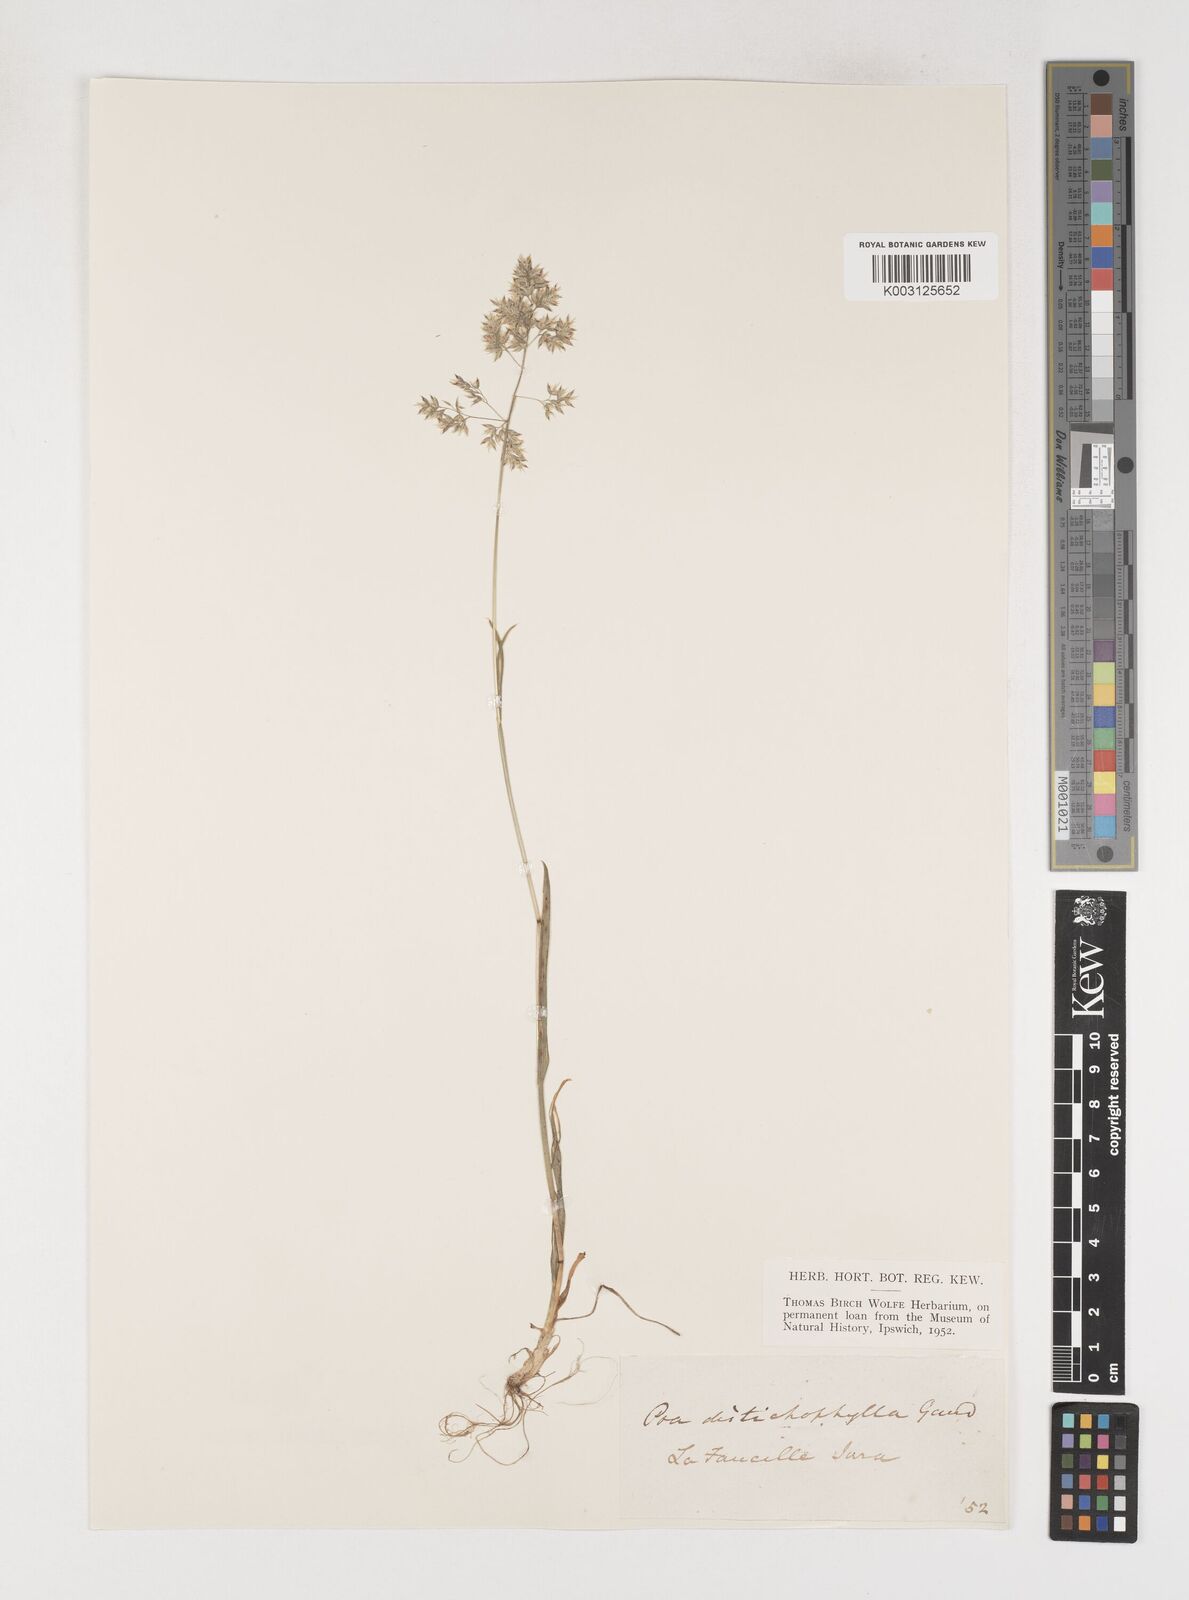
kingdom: Plantae
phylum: Tracheophyta
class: Liliopsida
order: Poales
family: Poaceae
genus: Poa
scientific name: Poa
